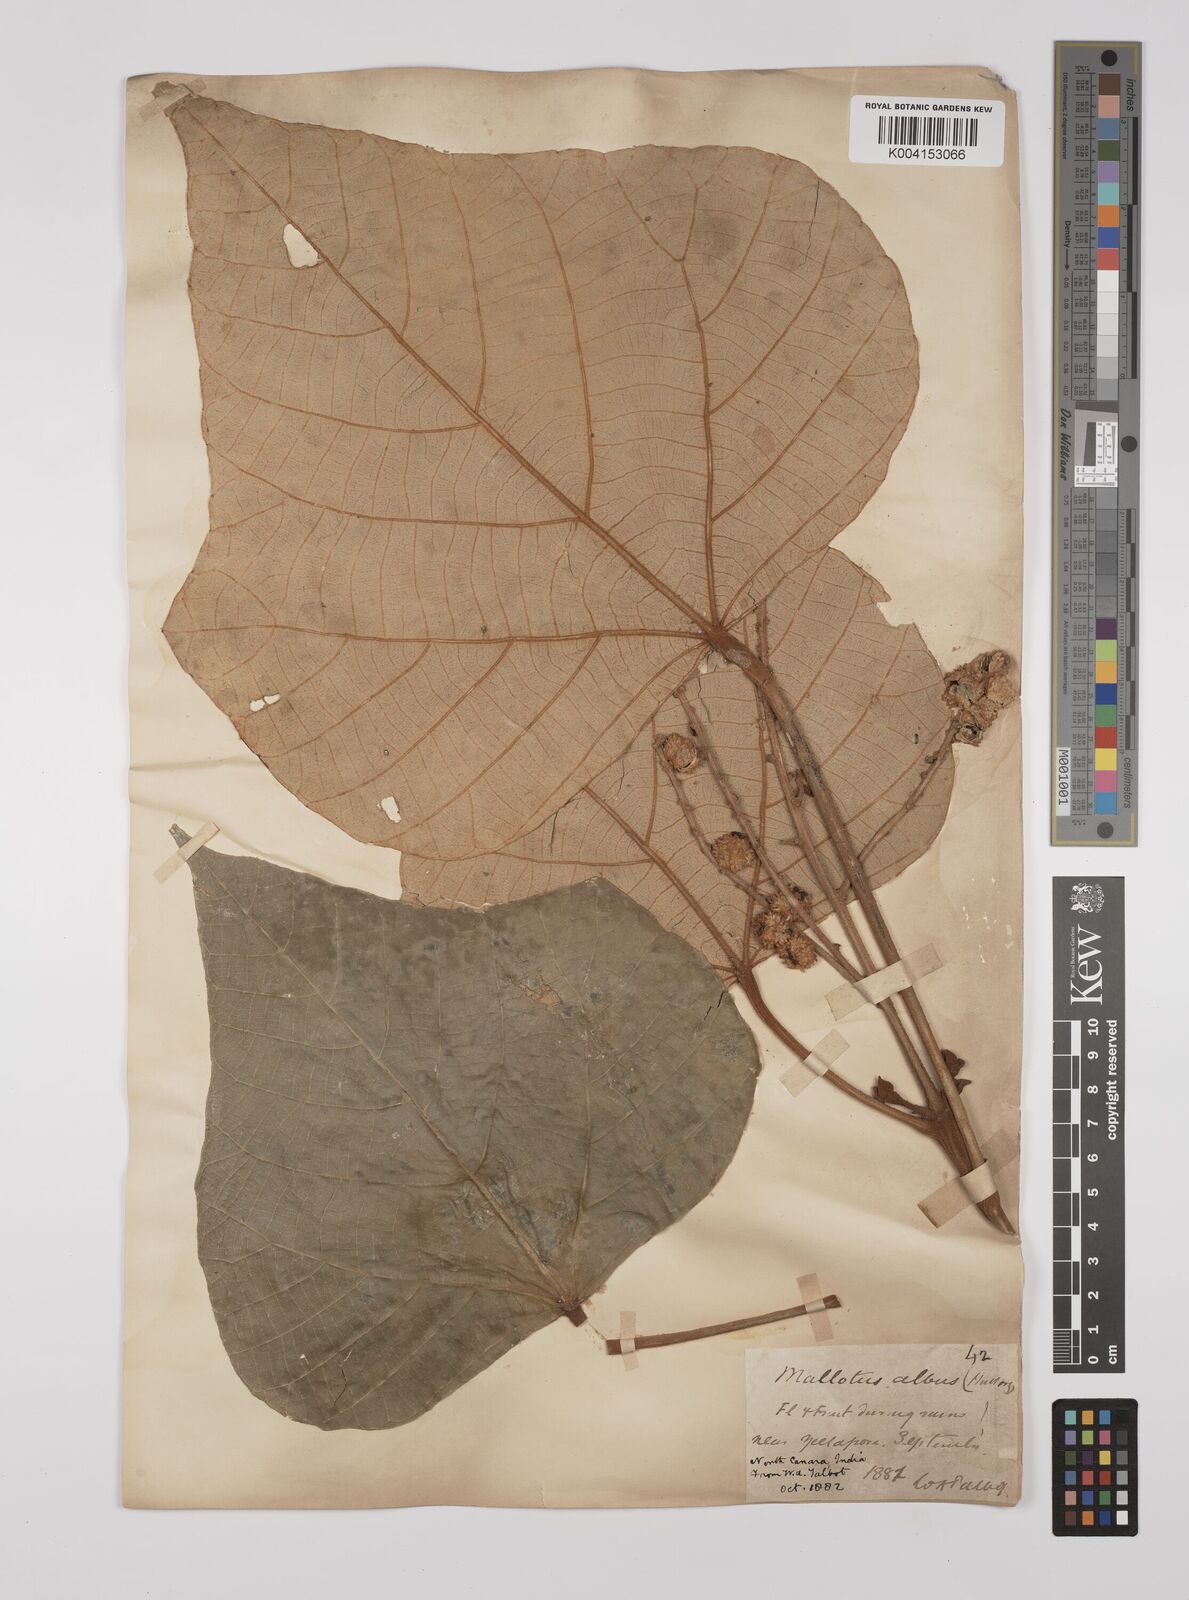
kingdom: Plantae
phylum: Tracheophyta
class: Magnoliopsida
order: Malpighiales
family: Euphorbiaceae
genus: Mallotus
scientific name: Mallotus tetracoccus
